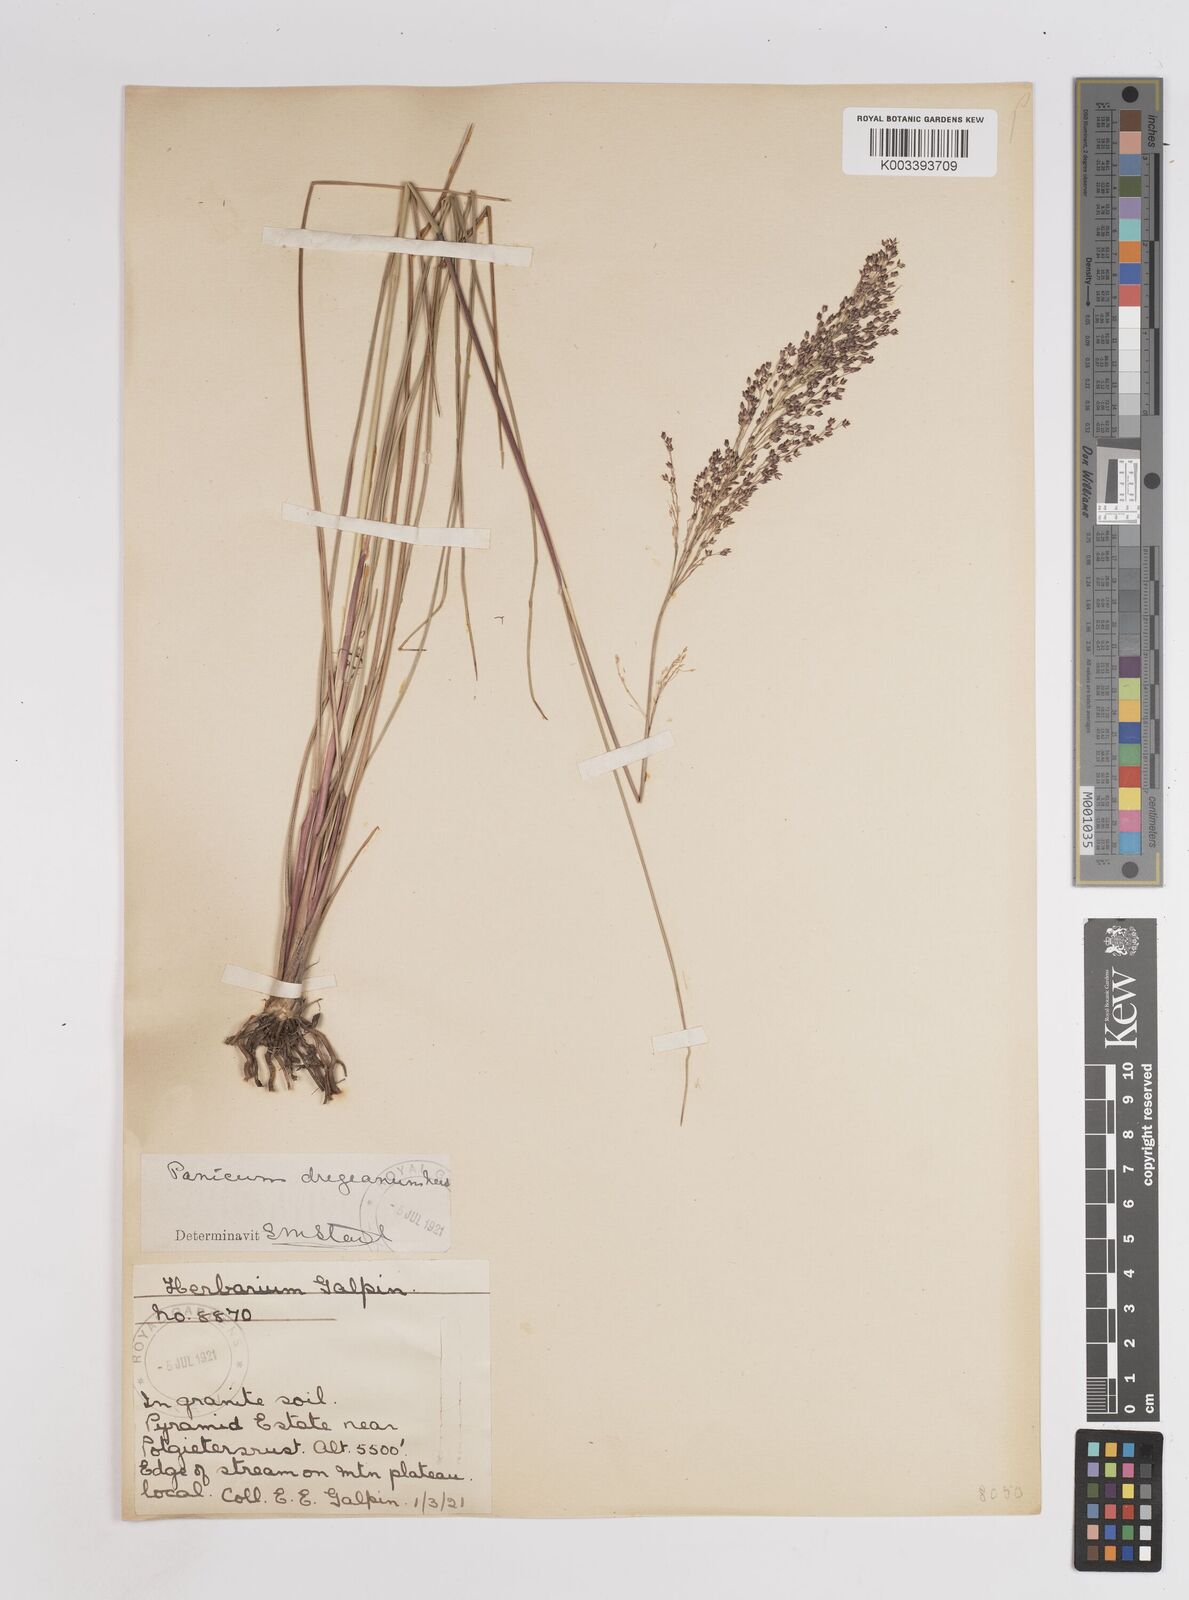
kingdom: Plantae
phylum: Tracheophyta
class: Liliopsida
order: Poales
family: Poaceae
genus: Panicum
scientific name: Panicum dregeanum
